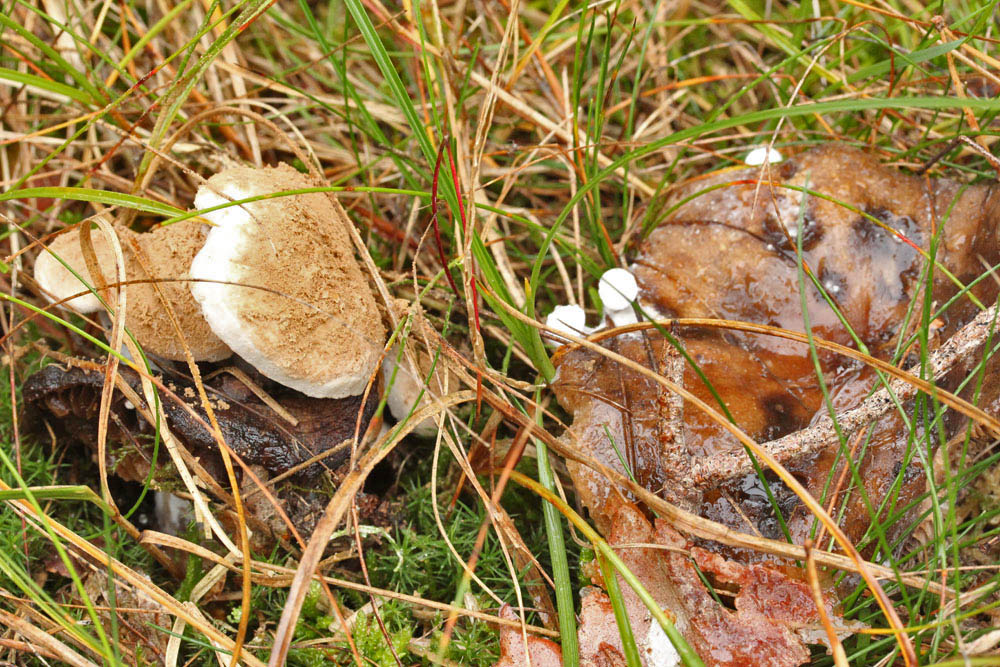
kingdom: Fungi
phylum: Basidiomycota
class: Agaricomycetes
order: Agaricales
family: Lyophyllaceae
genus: Asterophora
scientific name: Asterophora lycoperdoides
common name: brunpudret snyltehat
